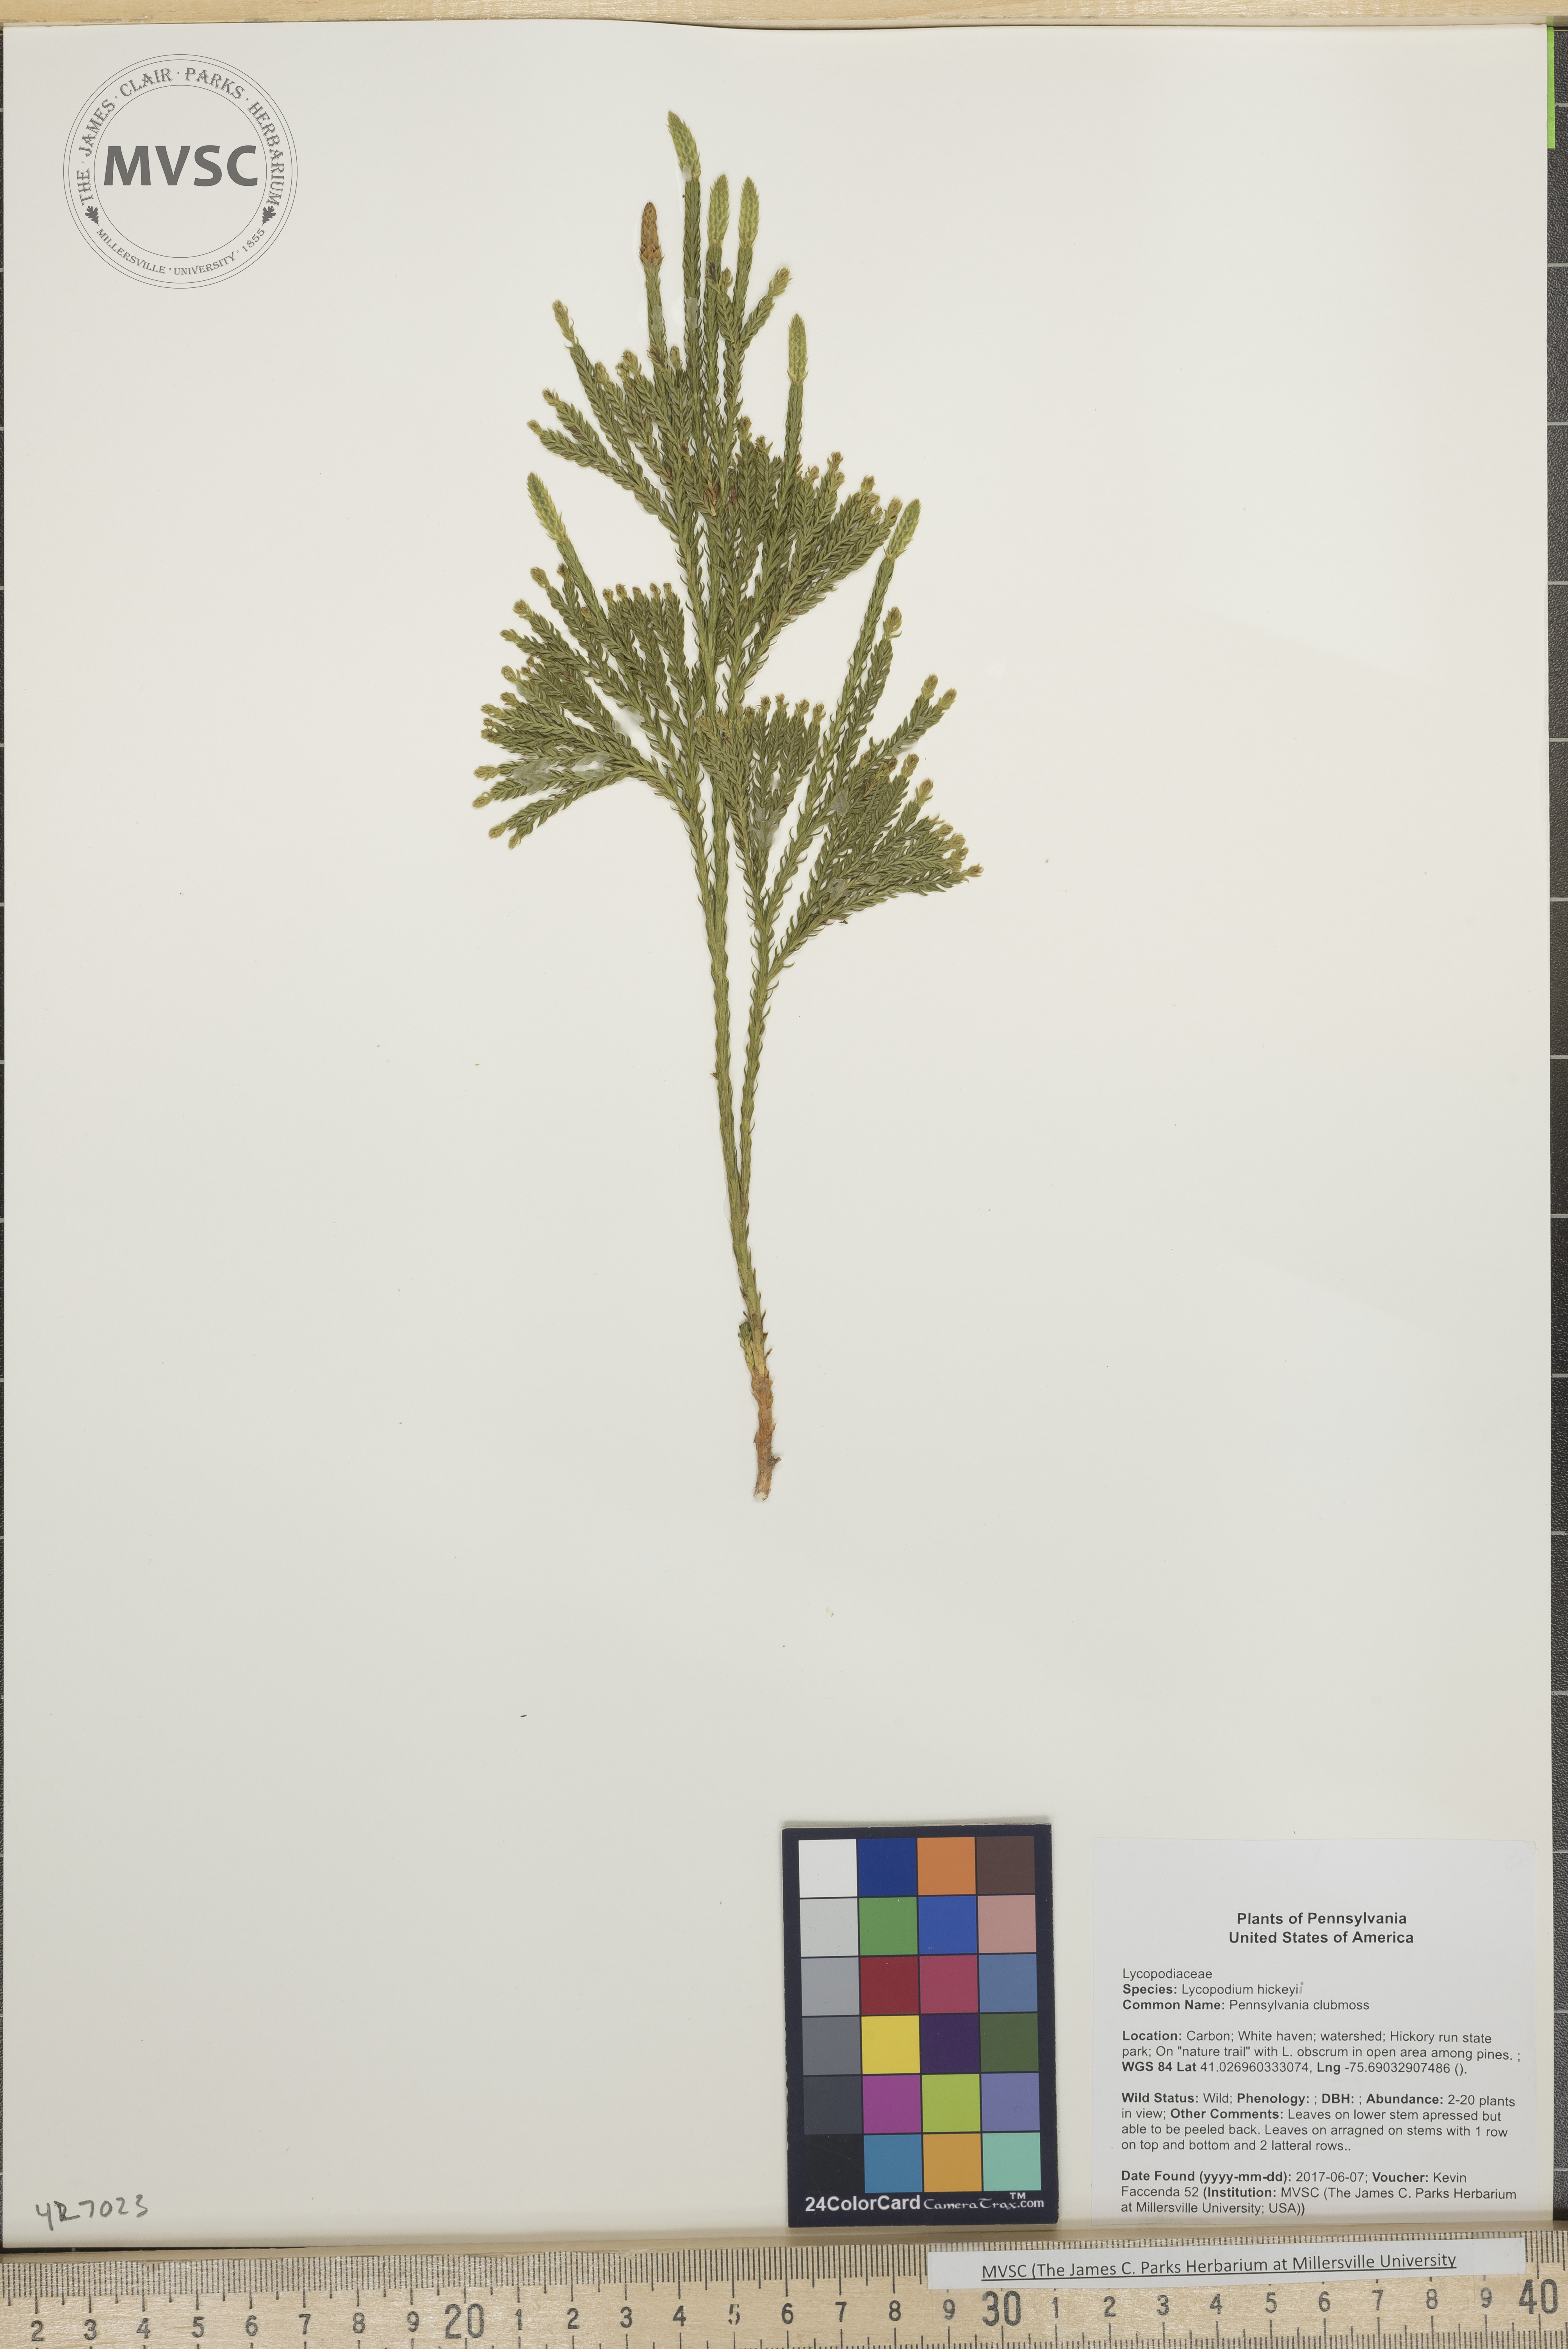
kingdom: Plantae
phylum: Tracheophyta
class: Lycopodiopsida
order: Lycopodiales
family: Lycopodiaceae
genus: Dendrolycopodium
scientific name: Dendrolycopodium hickeyi
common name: Pennsylvania clubmoss
